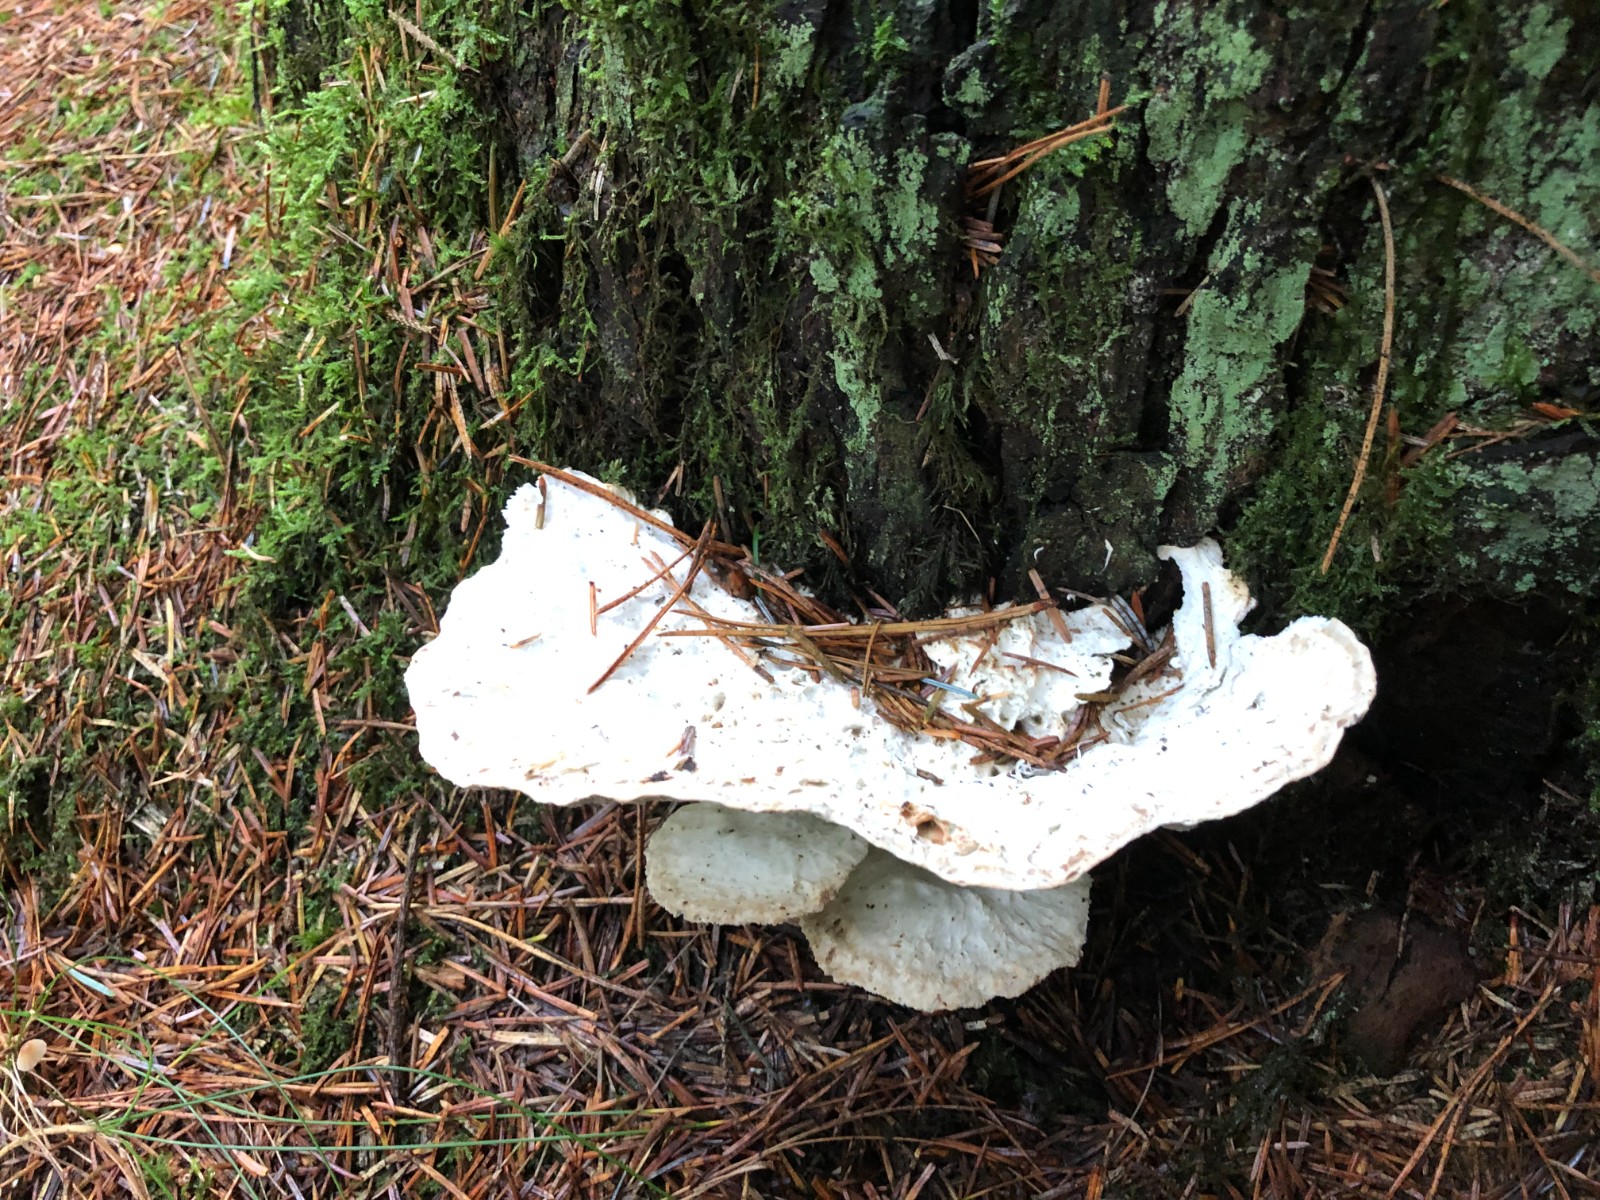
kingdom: Fungi
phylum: Basidiomycota
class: Agaricomycetes
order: Polyporales
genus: Calcipostia
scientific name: Calcipostia guttulata
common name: dråbe-kødporesvamp
